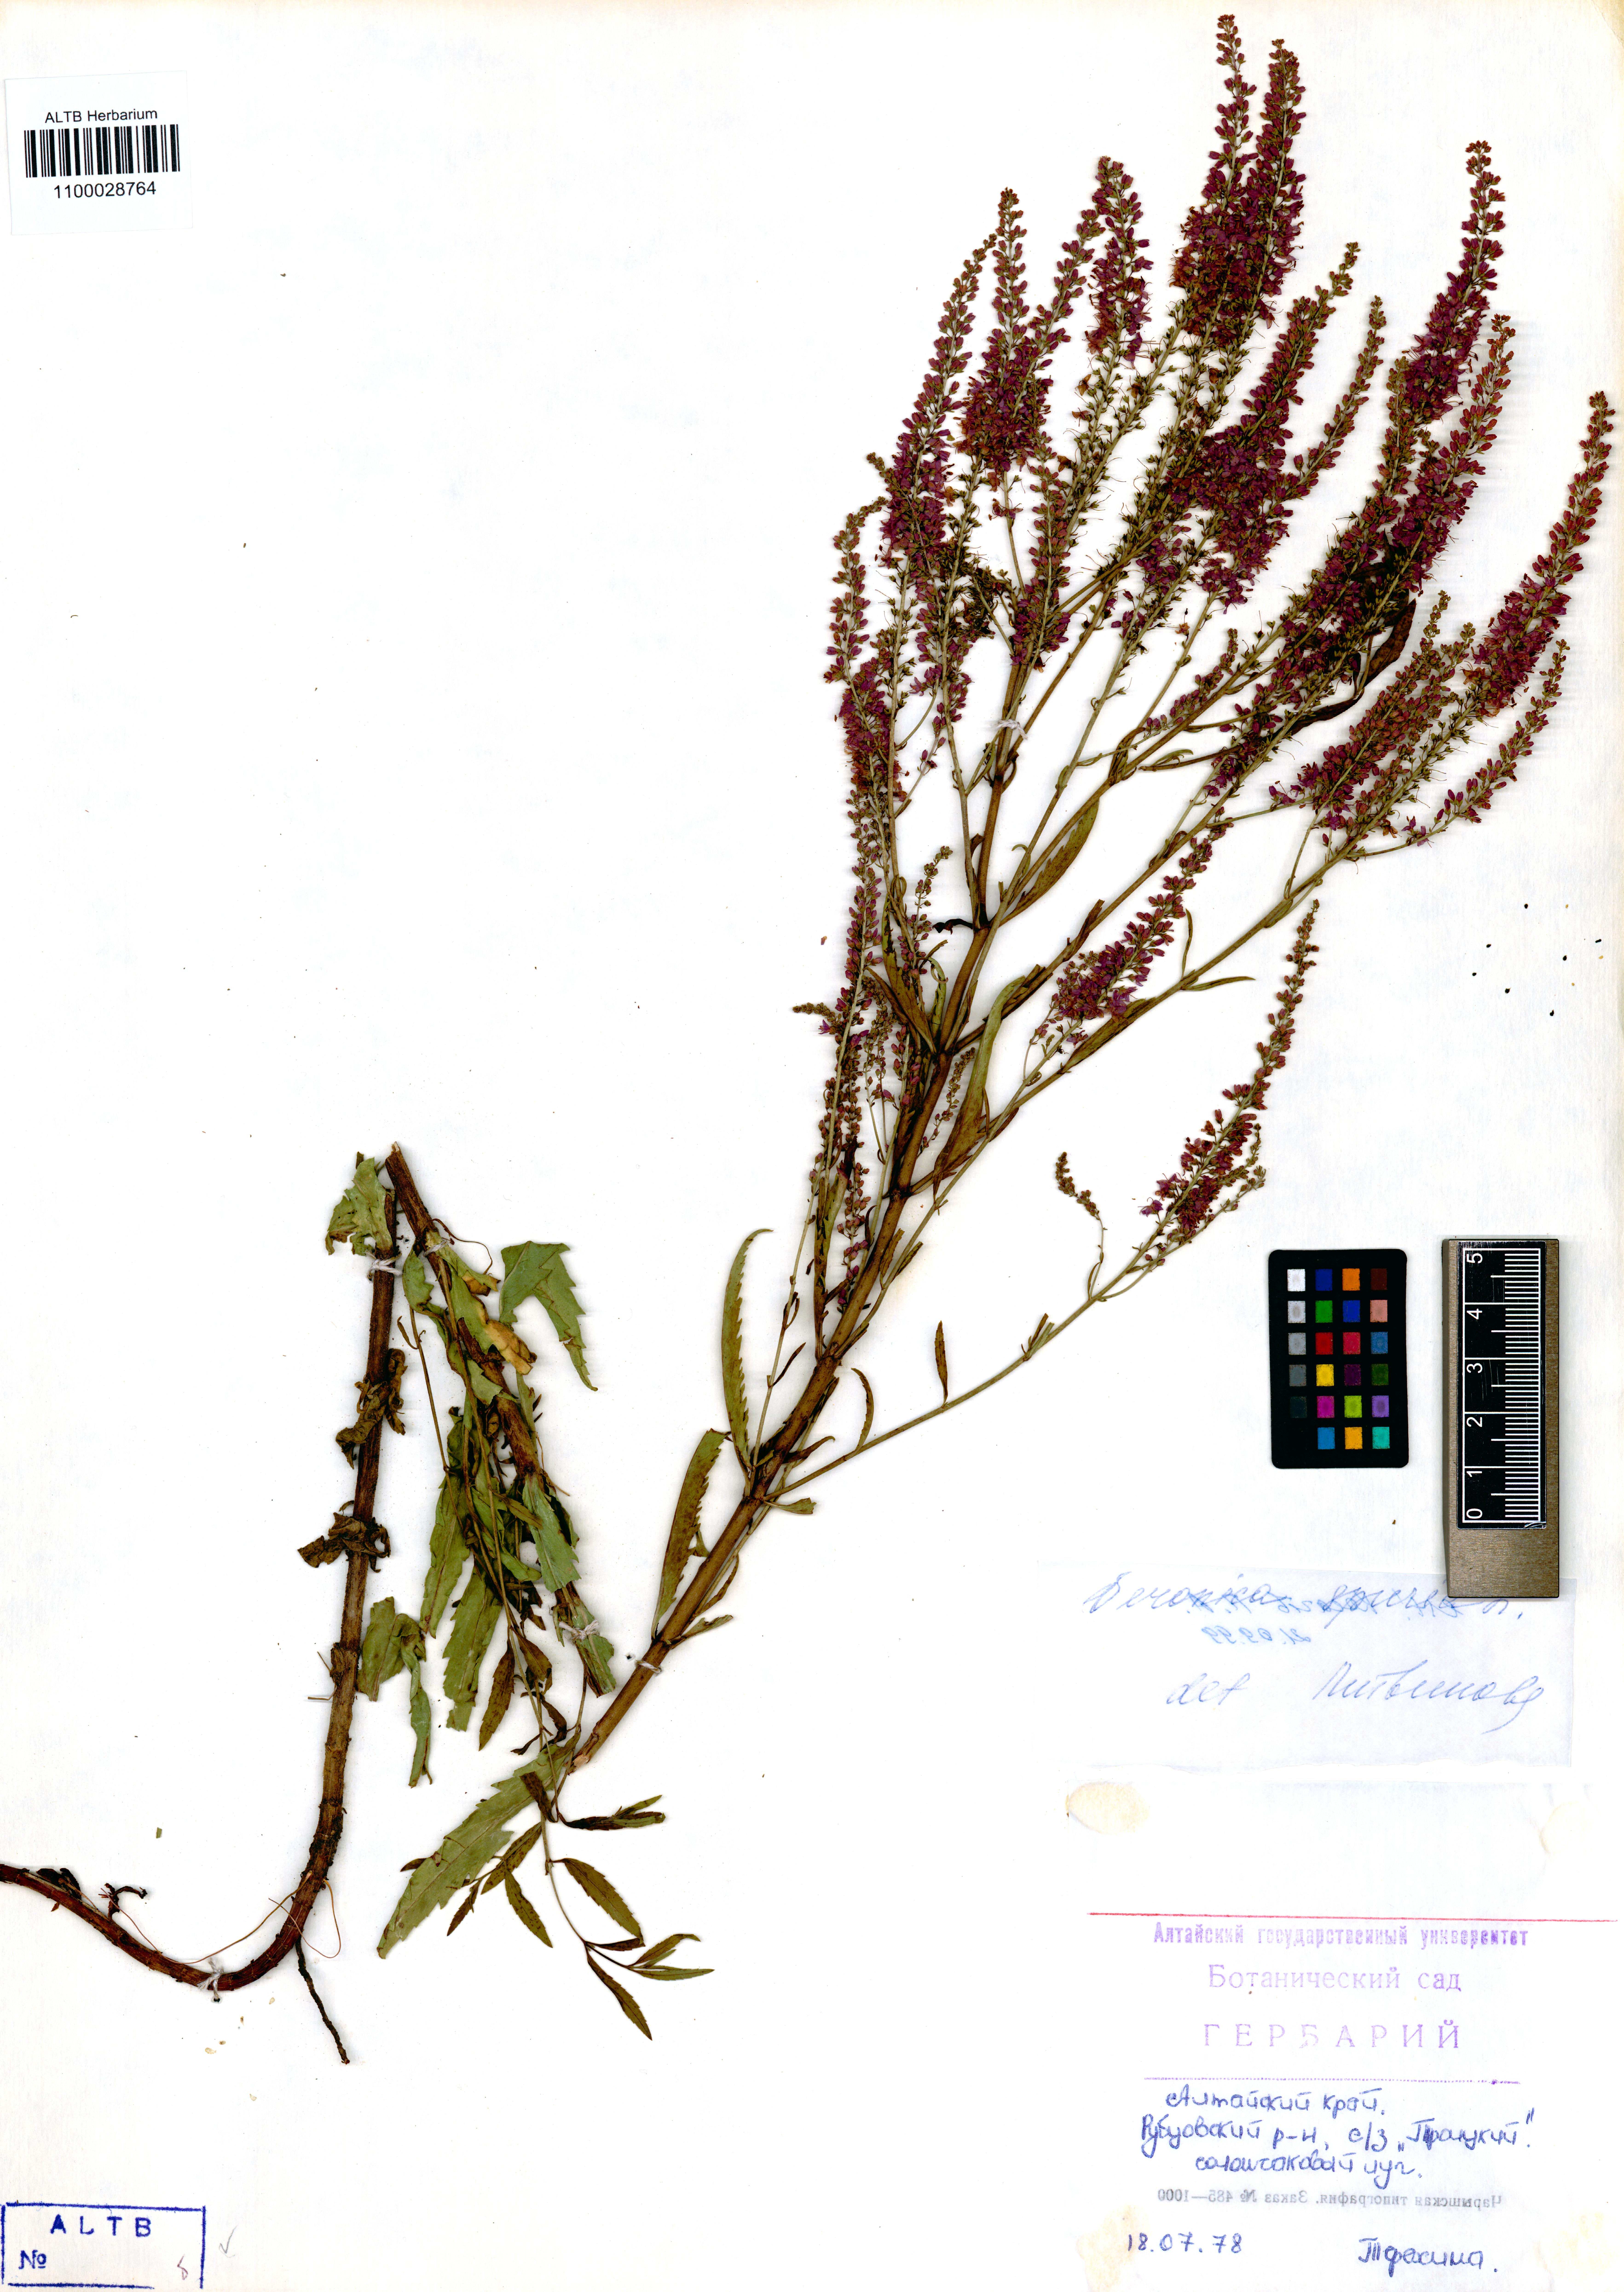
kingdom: Plantae
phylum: Tracheophyta
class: Magnoliopsida
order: Lamiales
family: Plantaginaceae
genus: Veronica
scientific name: Veronica spuria
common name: Bastard speedwell
